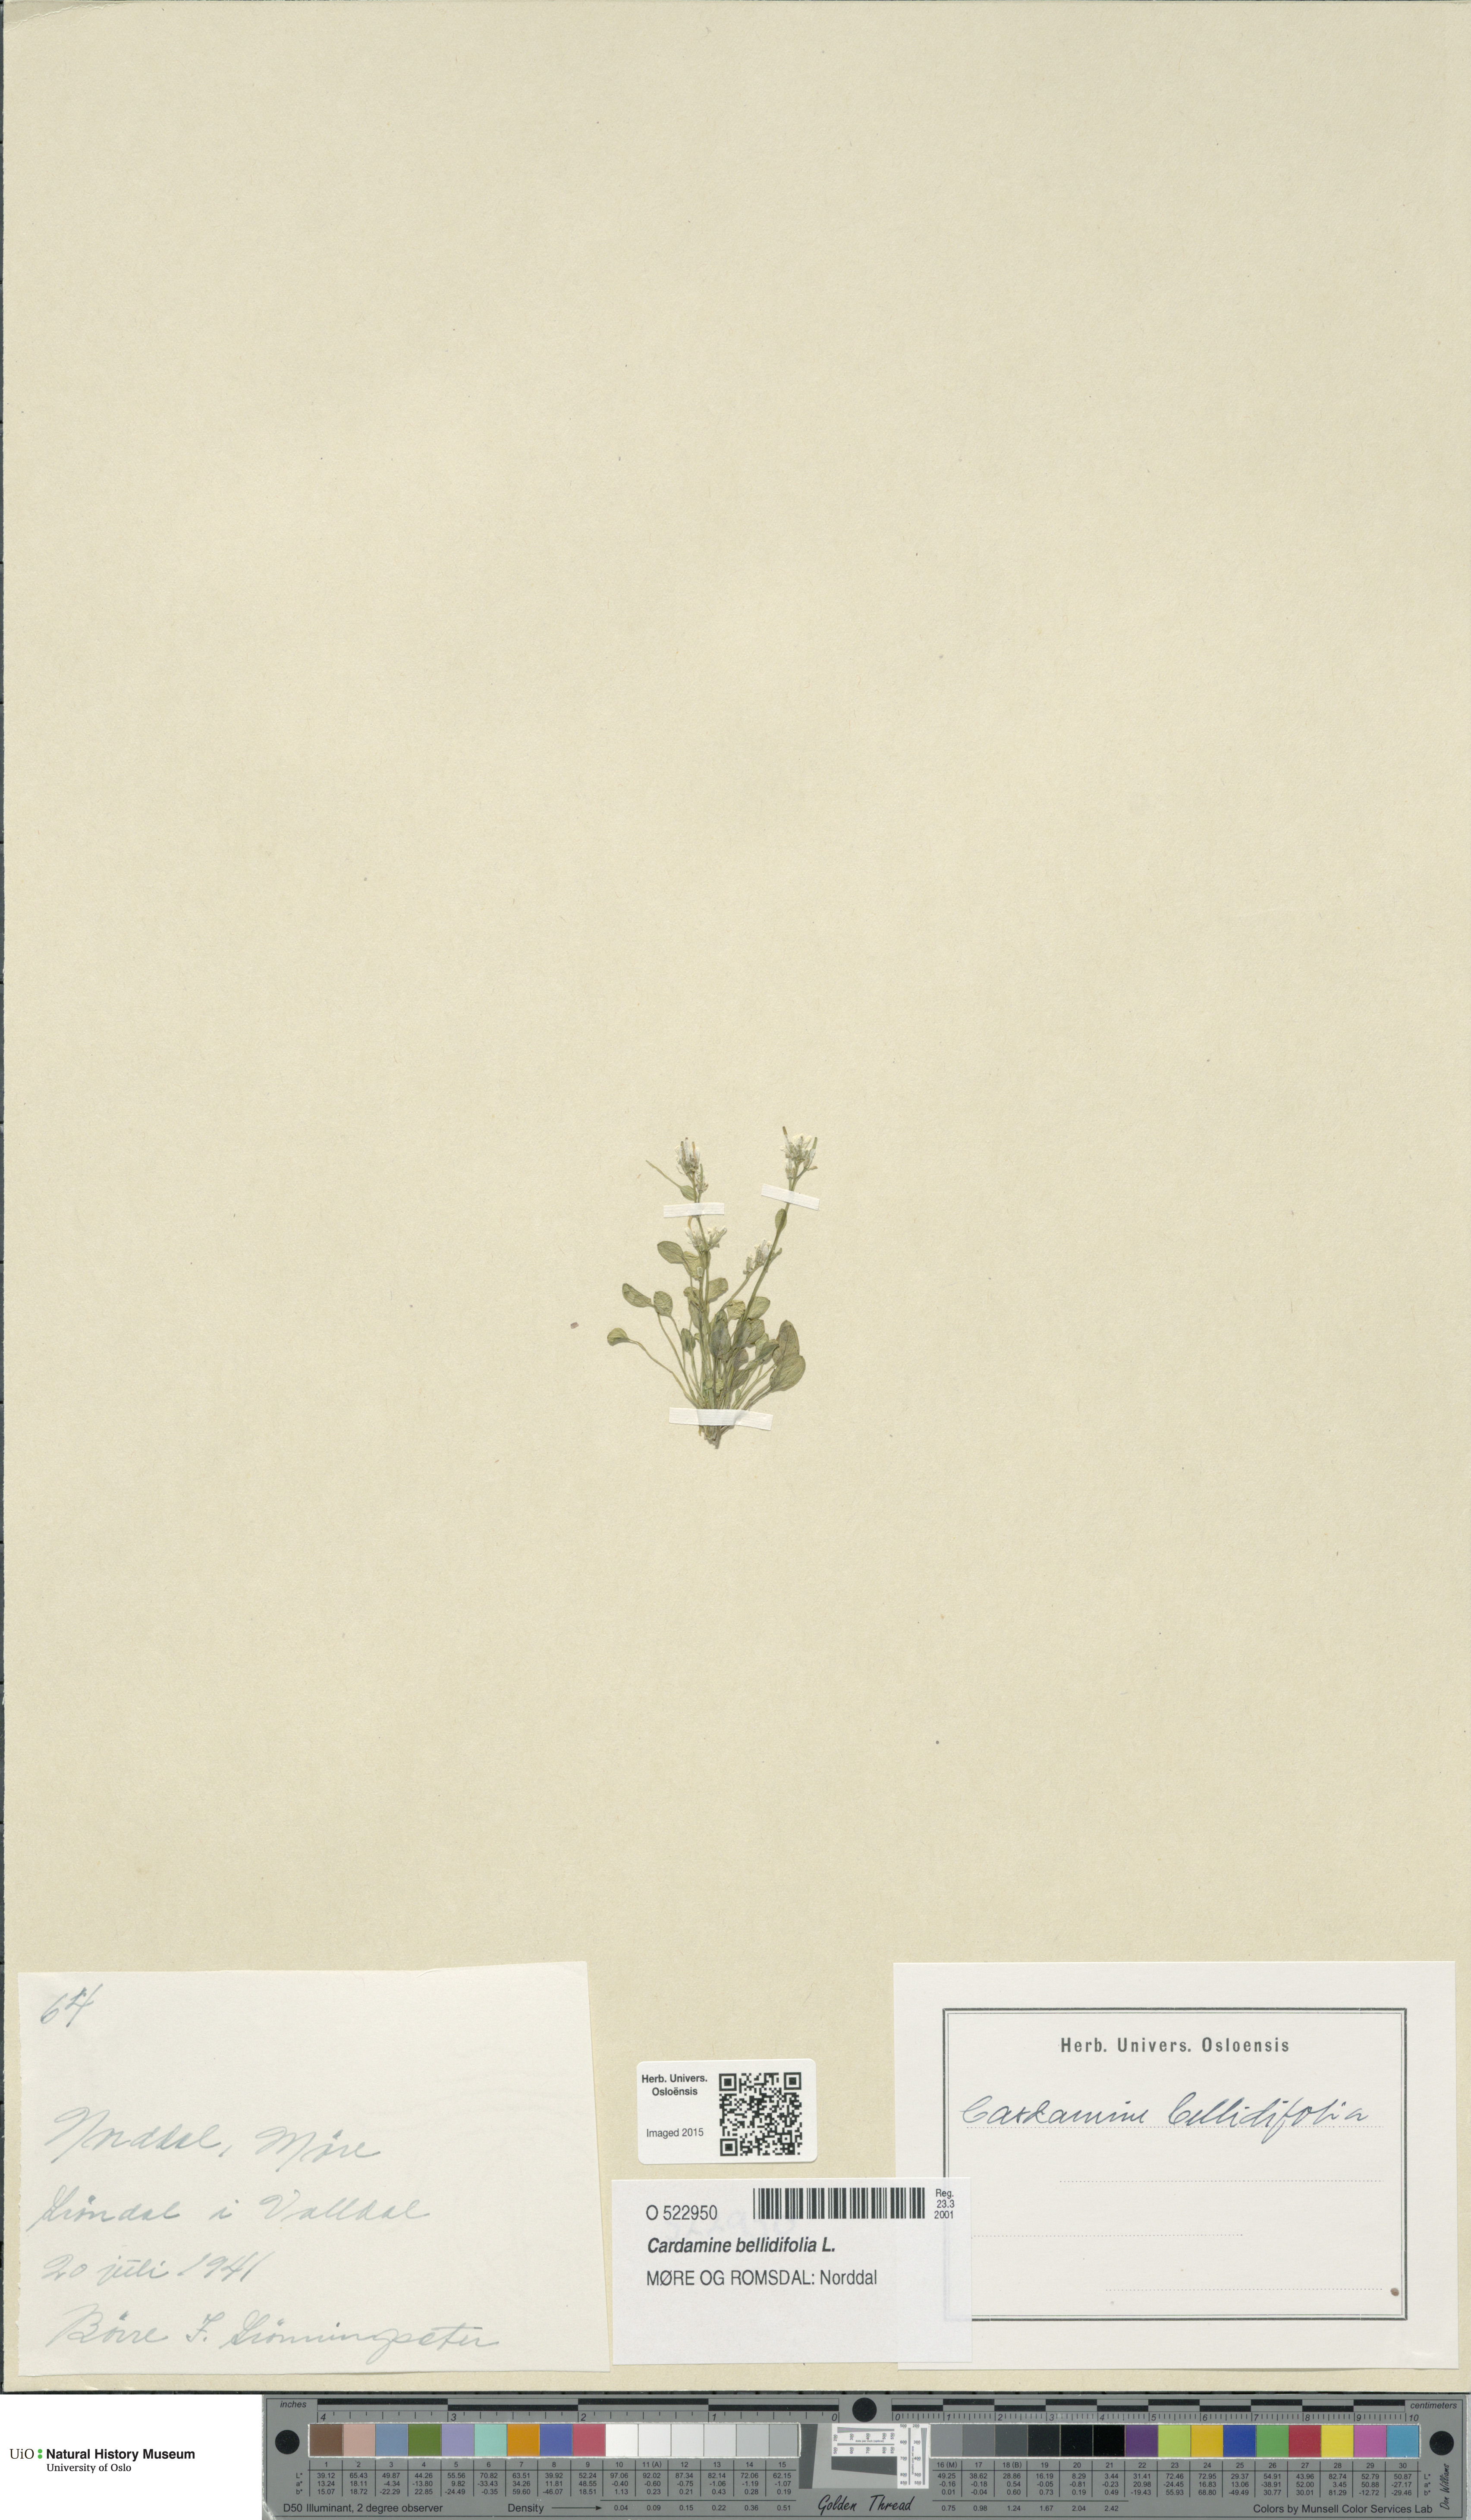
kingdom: Plantae
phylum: Tracheophyta
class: Magnoliopsida
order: Brassicales
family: Brassicaceae
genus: Cardamine
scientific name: Cardamine bellidifolia
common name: Alpine bittercress
